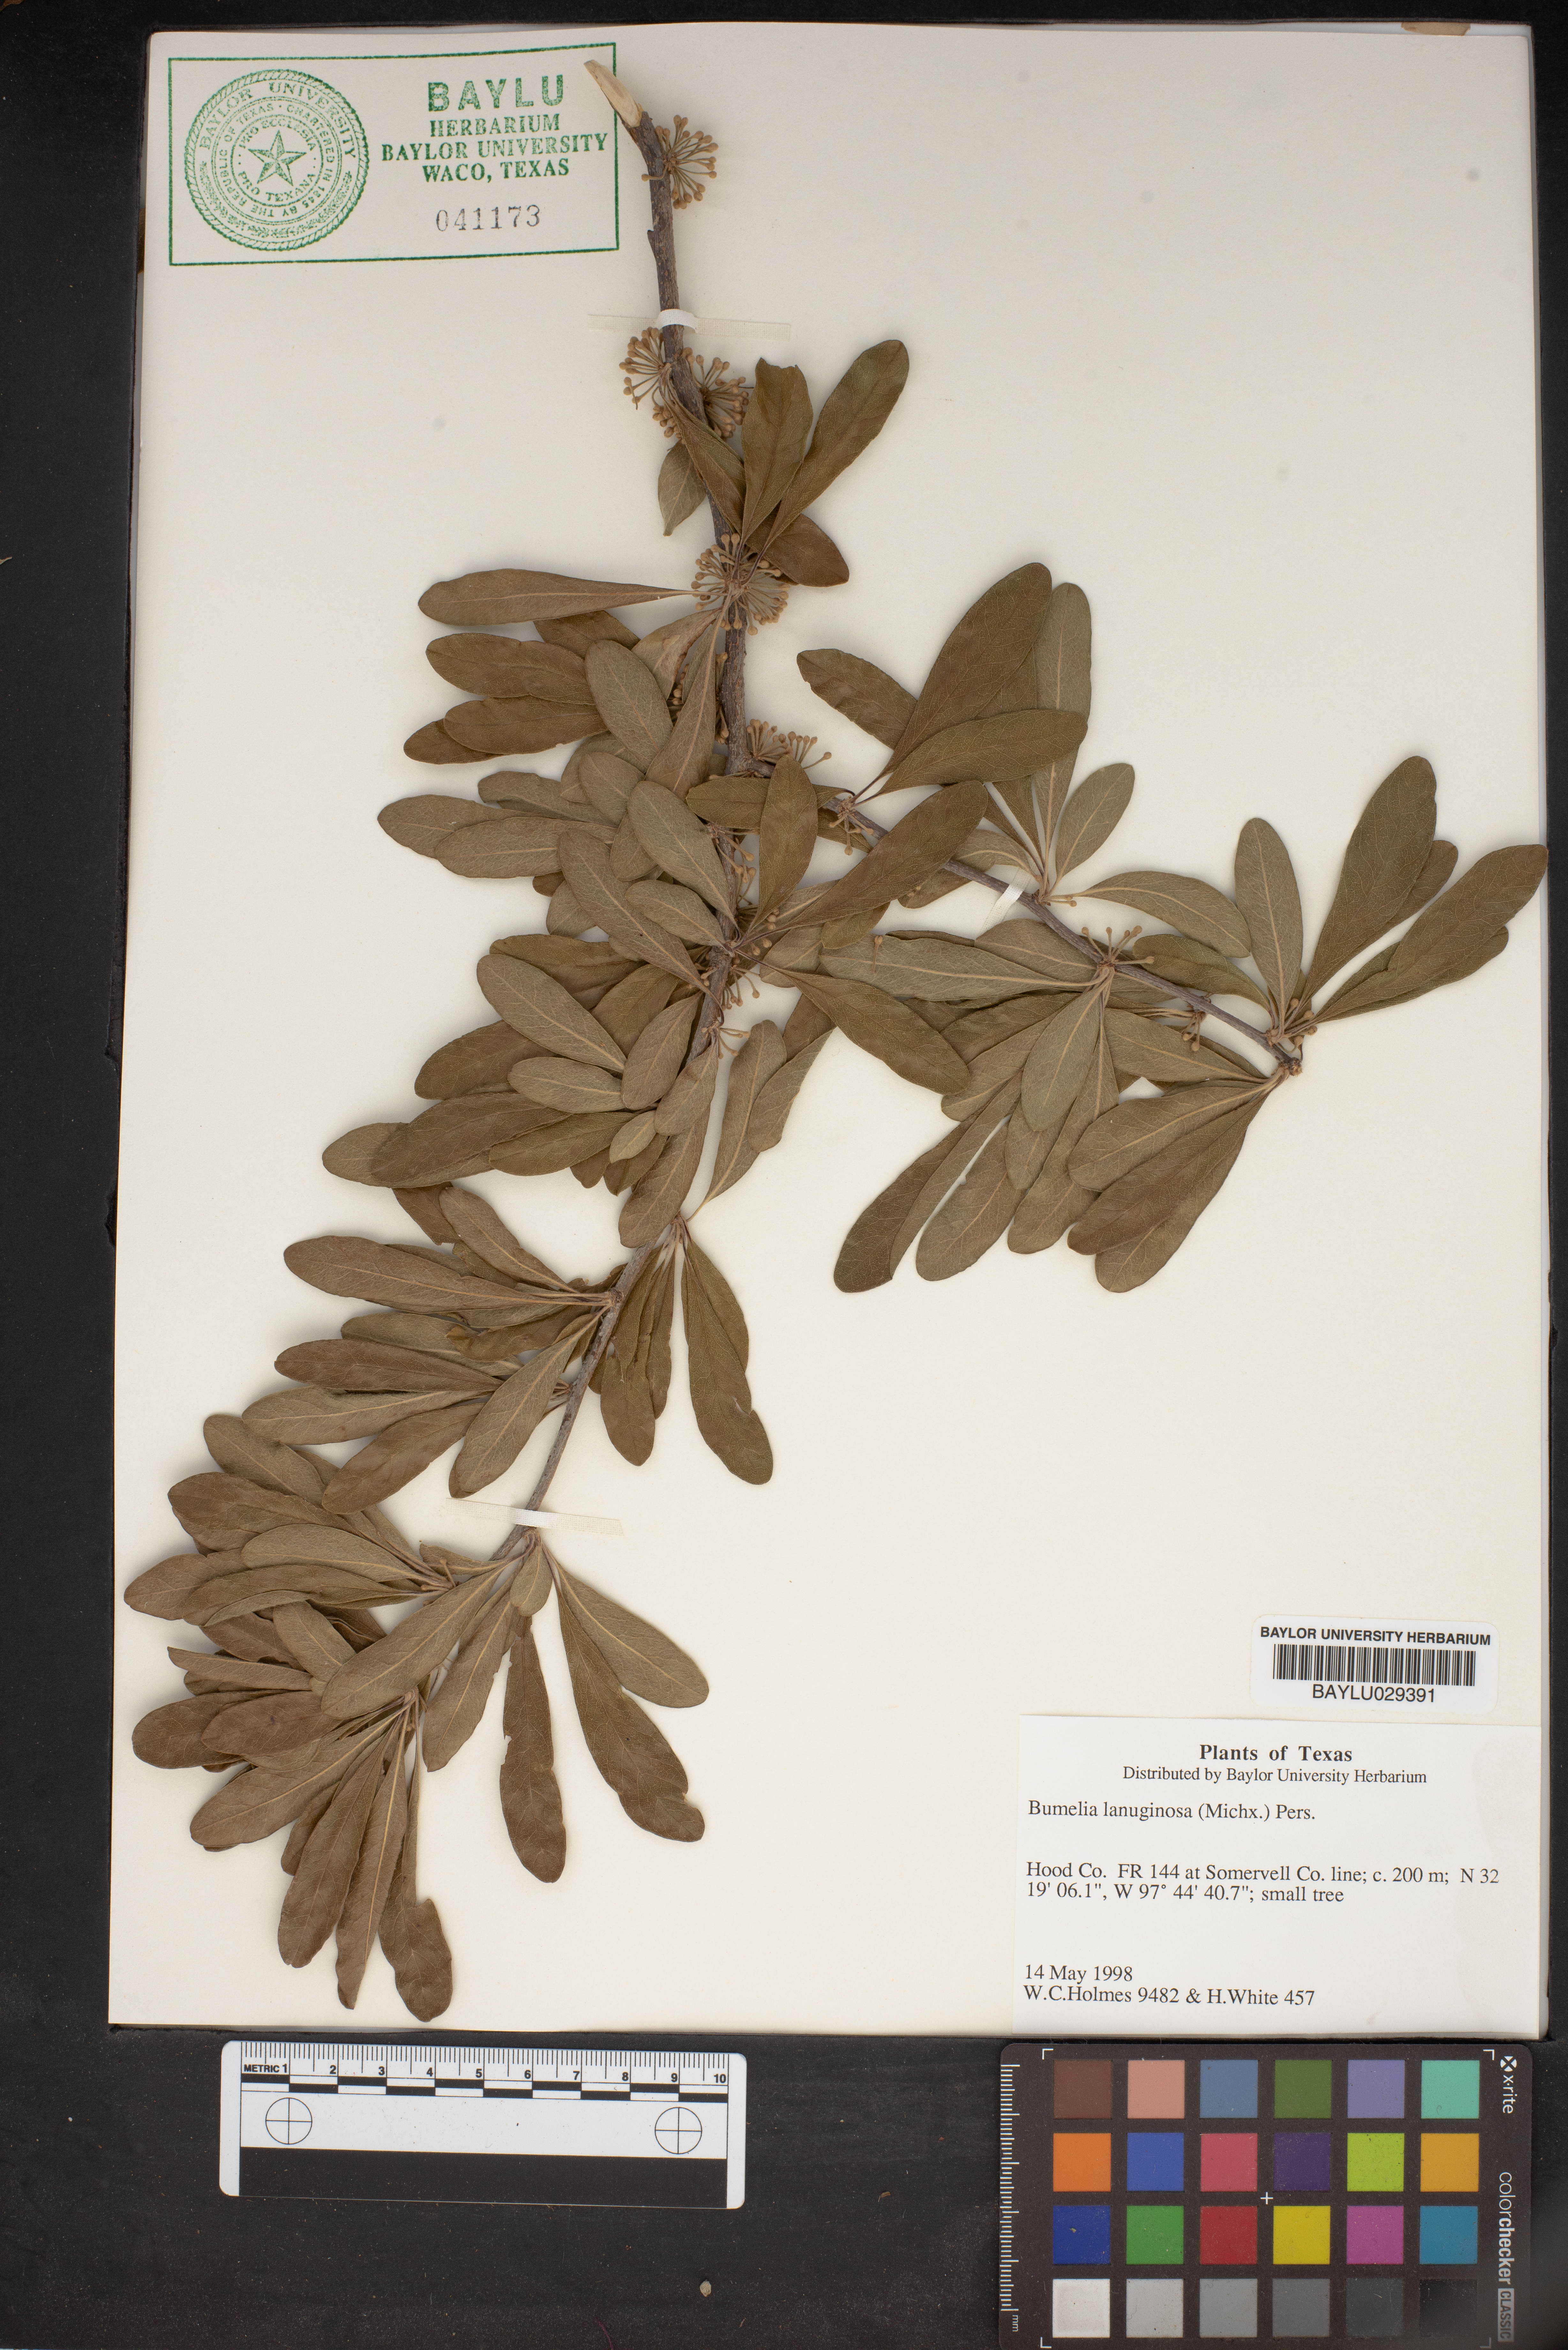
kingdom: Plantae
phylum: Tracheophyta
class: Magnoliopsida
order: Ericales
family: Sapotaceae
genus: Sideroxylon
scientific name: Sideroxylon lanuginosum
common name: Chittamwood
